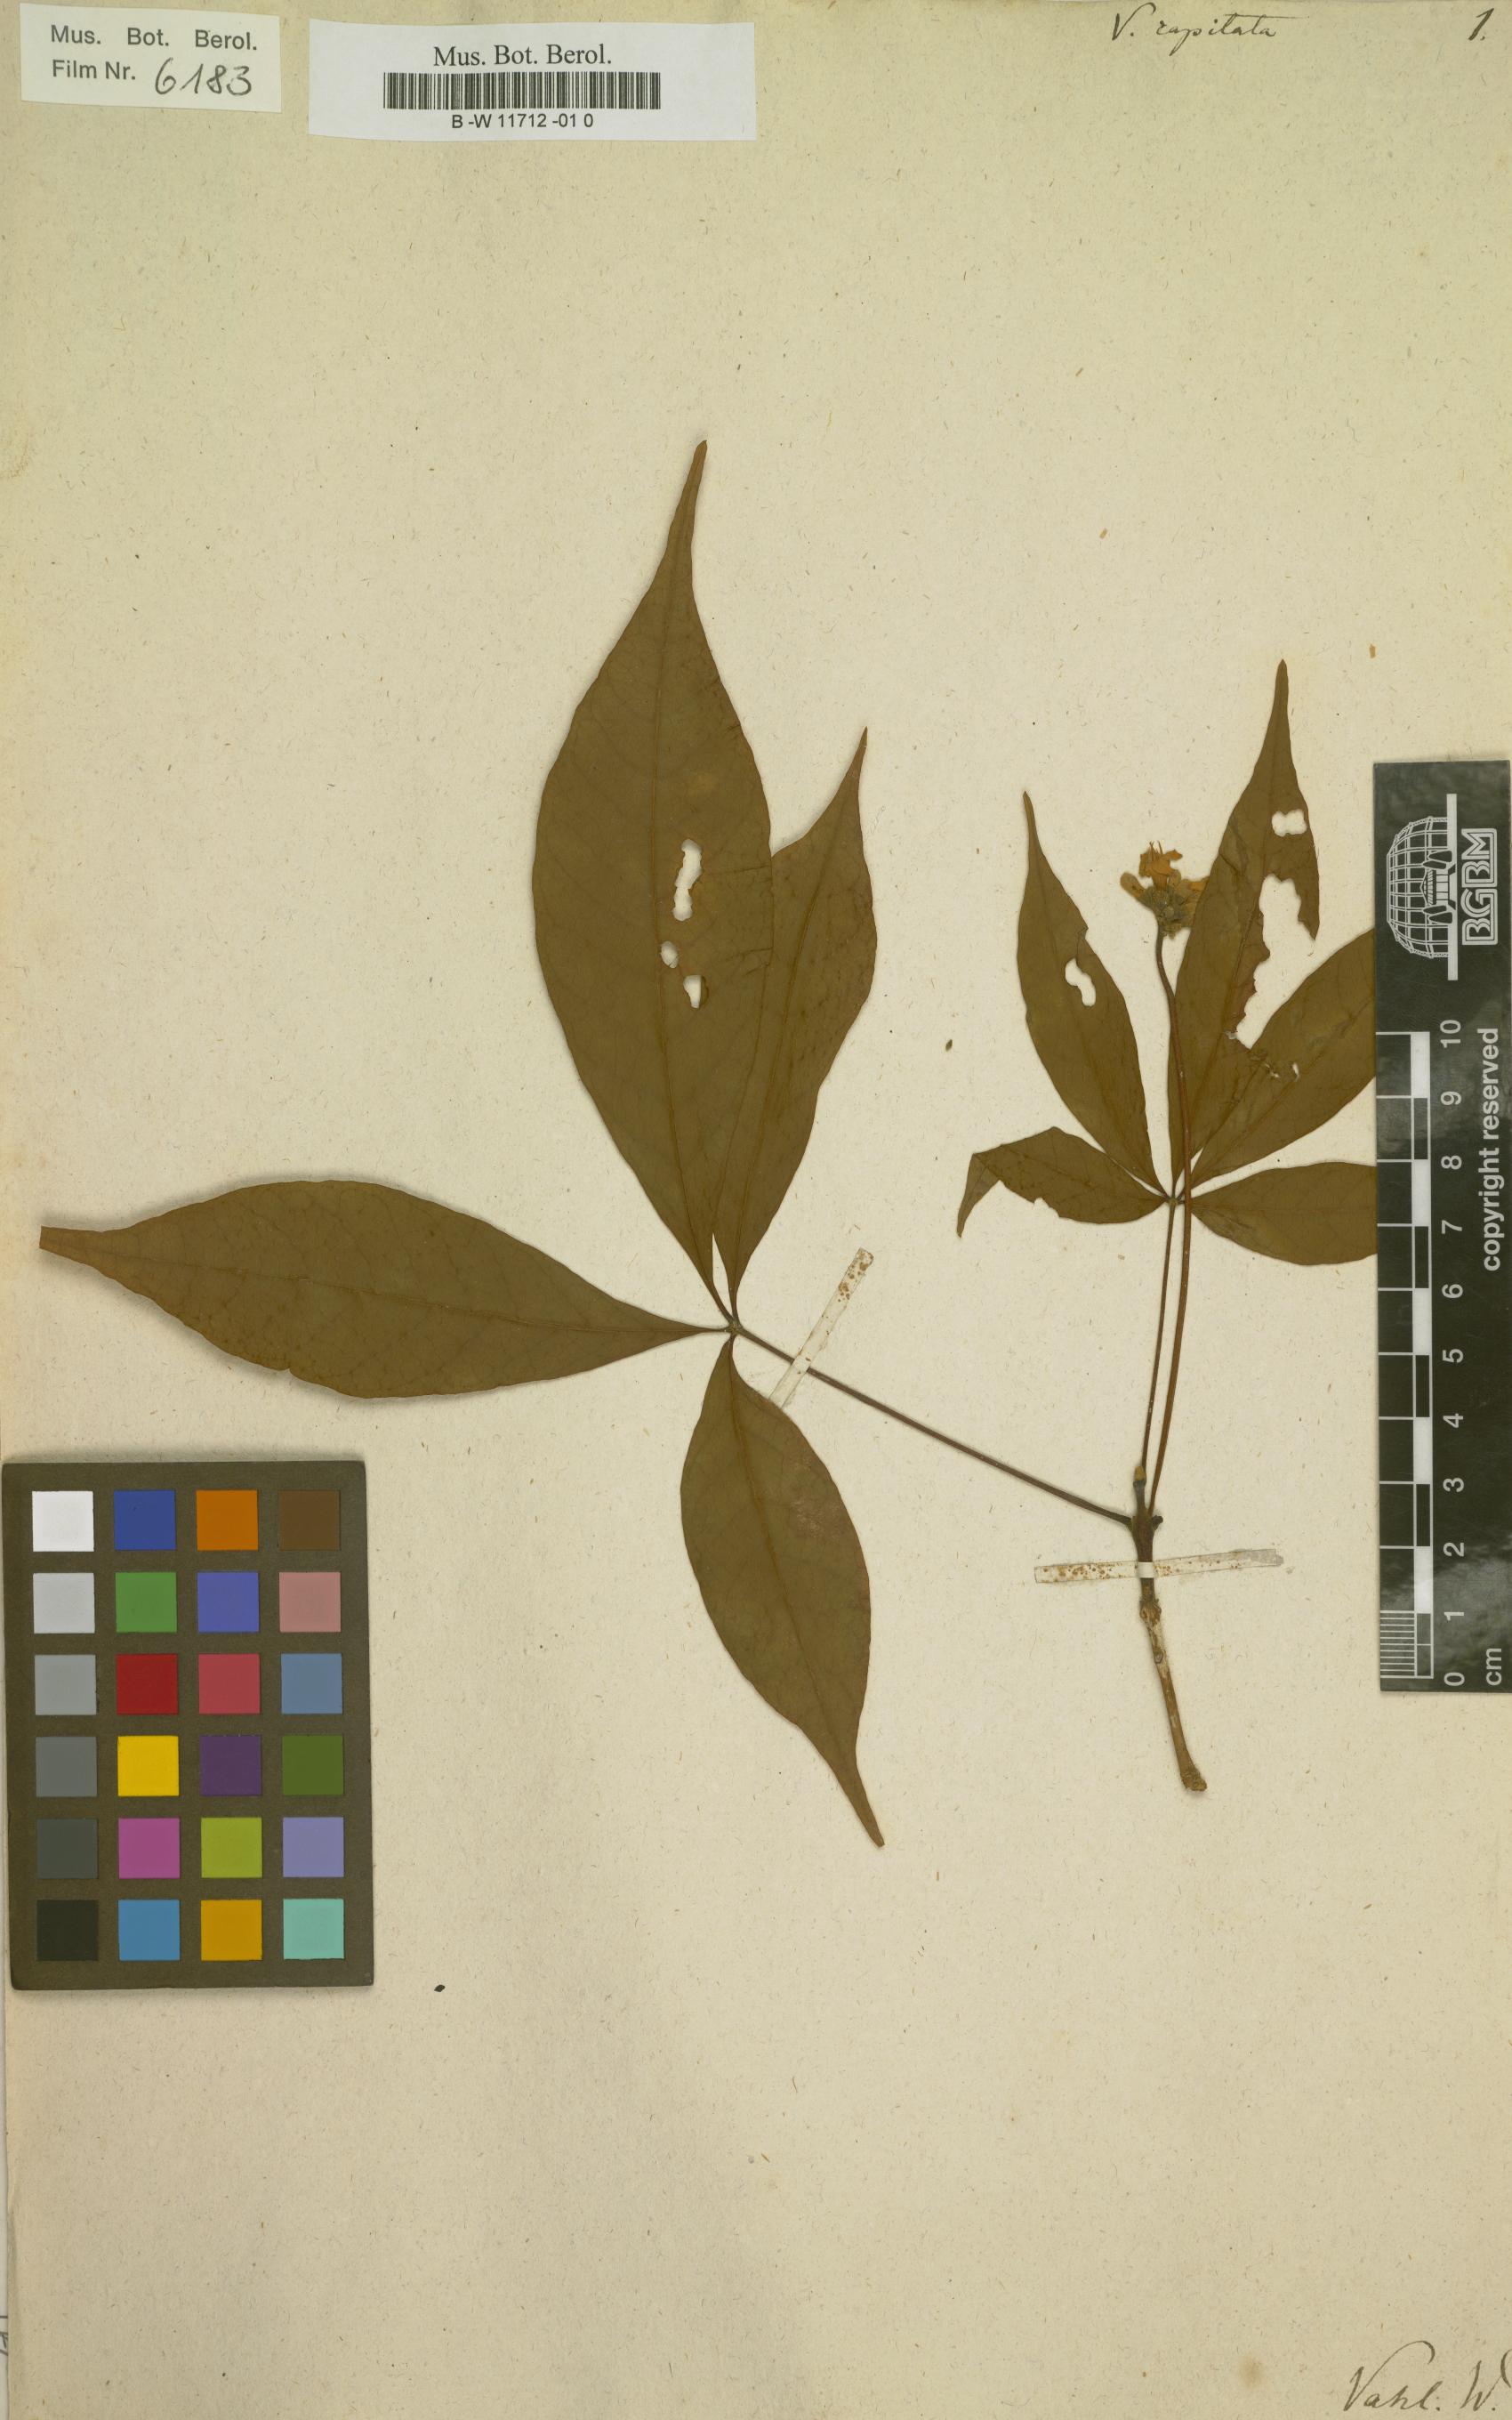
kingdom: Plantae
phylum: Tracheophyta
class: Magnoliopsida
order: Lamiales
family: Lamiaceae
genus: Vitex
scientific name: Vitex capitata
